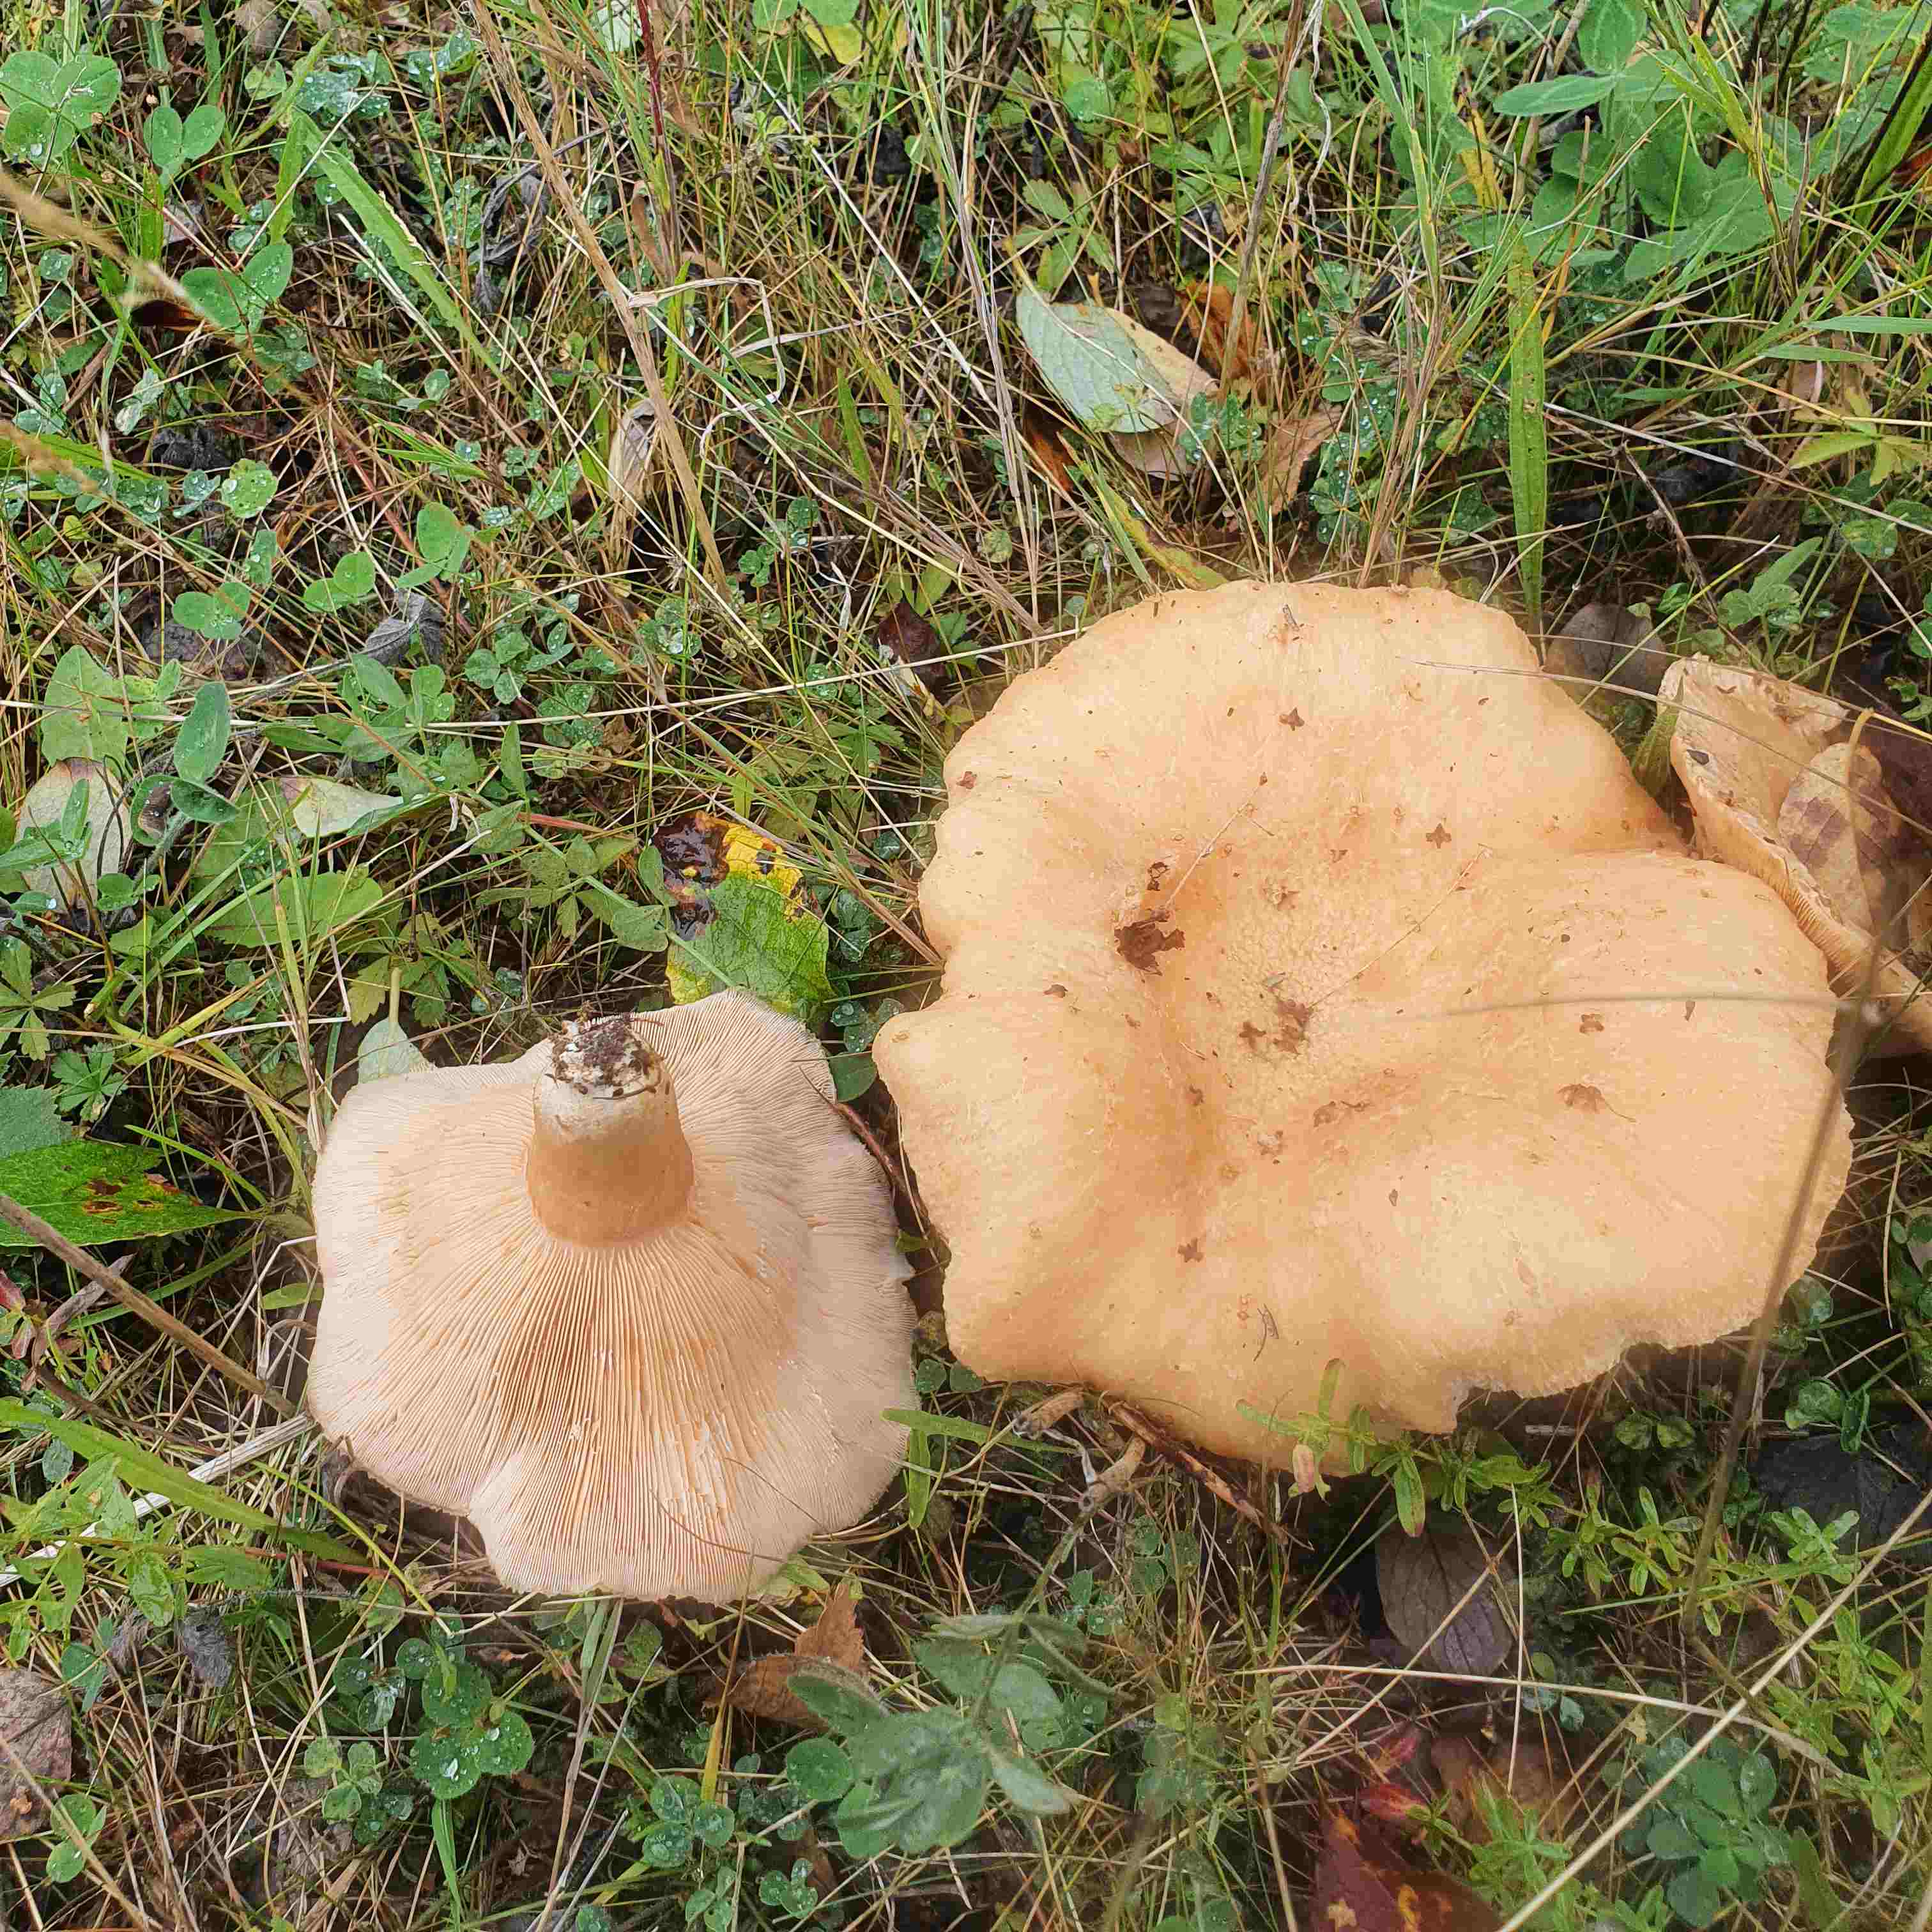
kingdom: Fungi
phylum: Basidiomycota
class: Agaricomycetes
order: Russulales
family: Russulaceae
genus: Lactarius
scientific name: Lactarius pubescens
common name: dunet mælkehat
